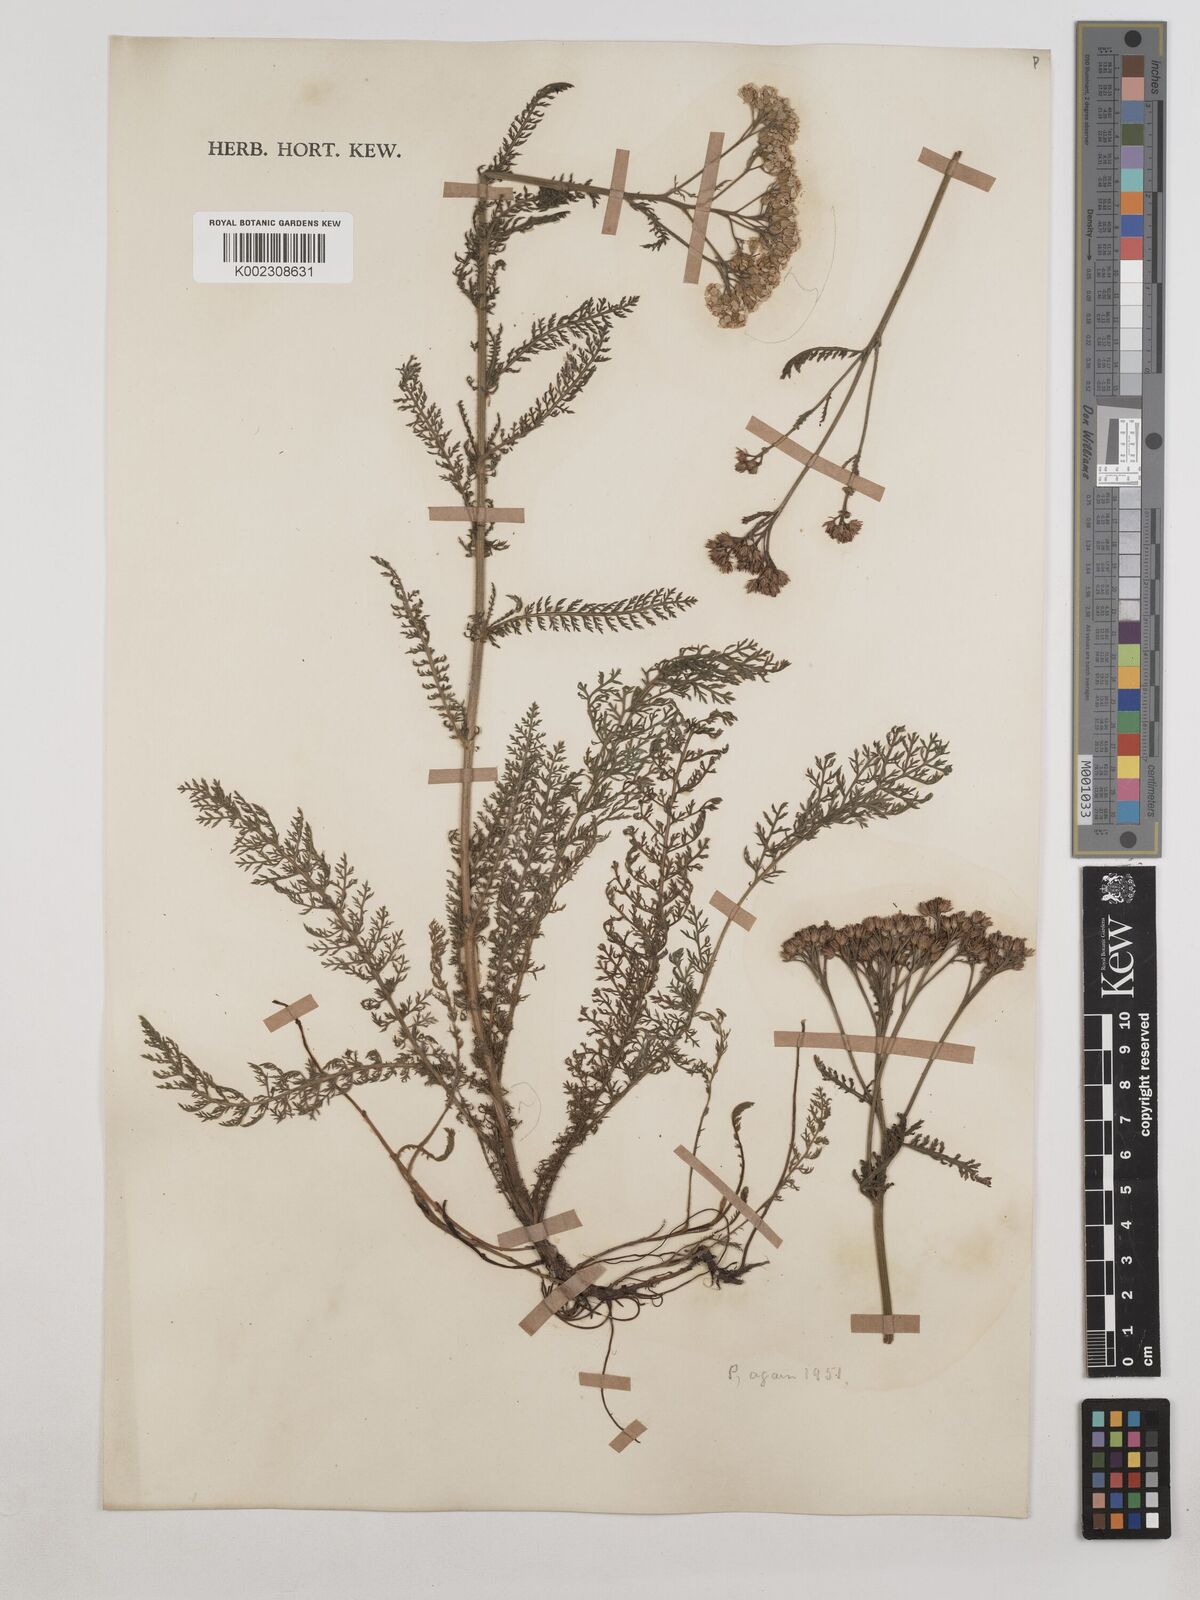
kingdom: Plantae
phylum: Tracheophyta
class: Magnoliopsida
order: Asterales
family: Asteraceae
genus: Achillea
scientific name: Achillea millefolium
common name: Yarrow
